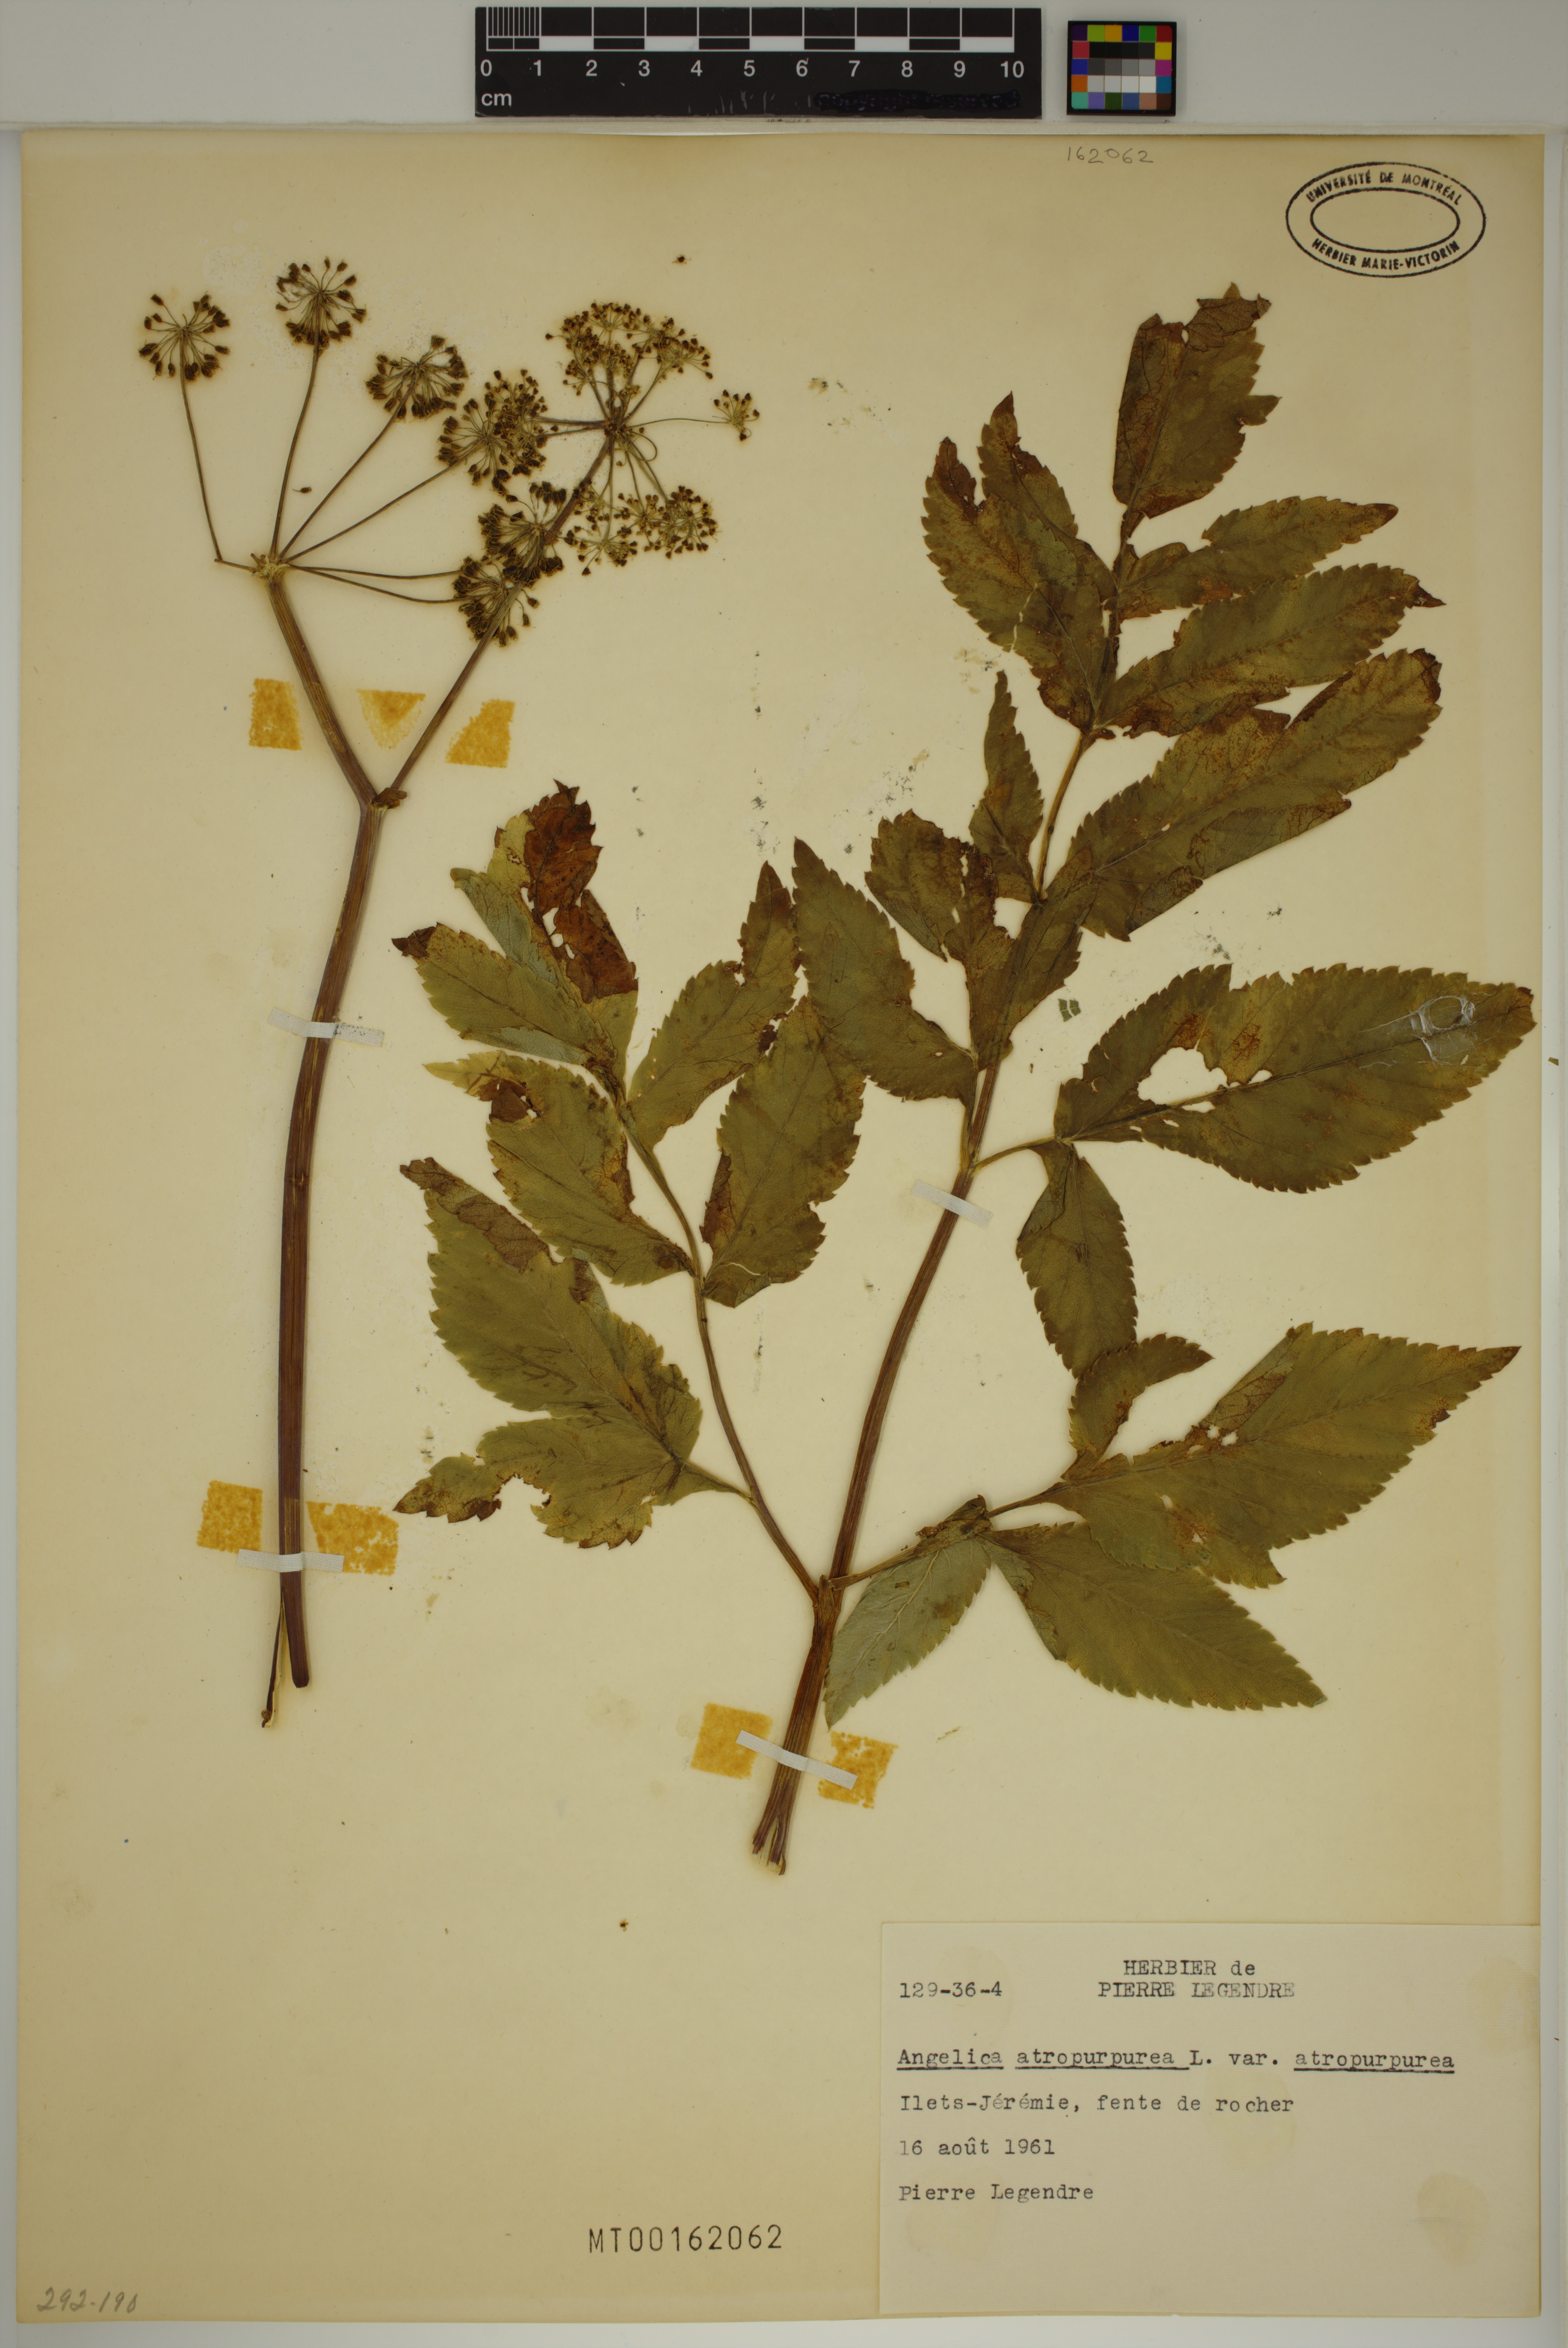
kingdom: Plantae
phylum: Tracheophyta
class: Magnoliopsida
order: Apiales
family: Apiaceae
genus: Angelica
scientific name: Angelica atropurpurea
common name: Great angelica
